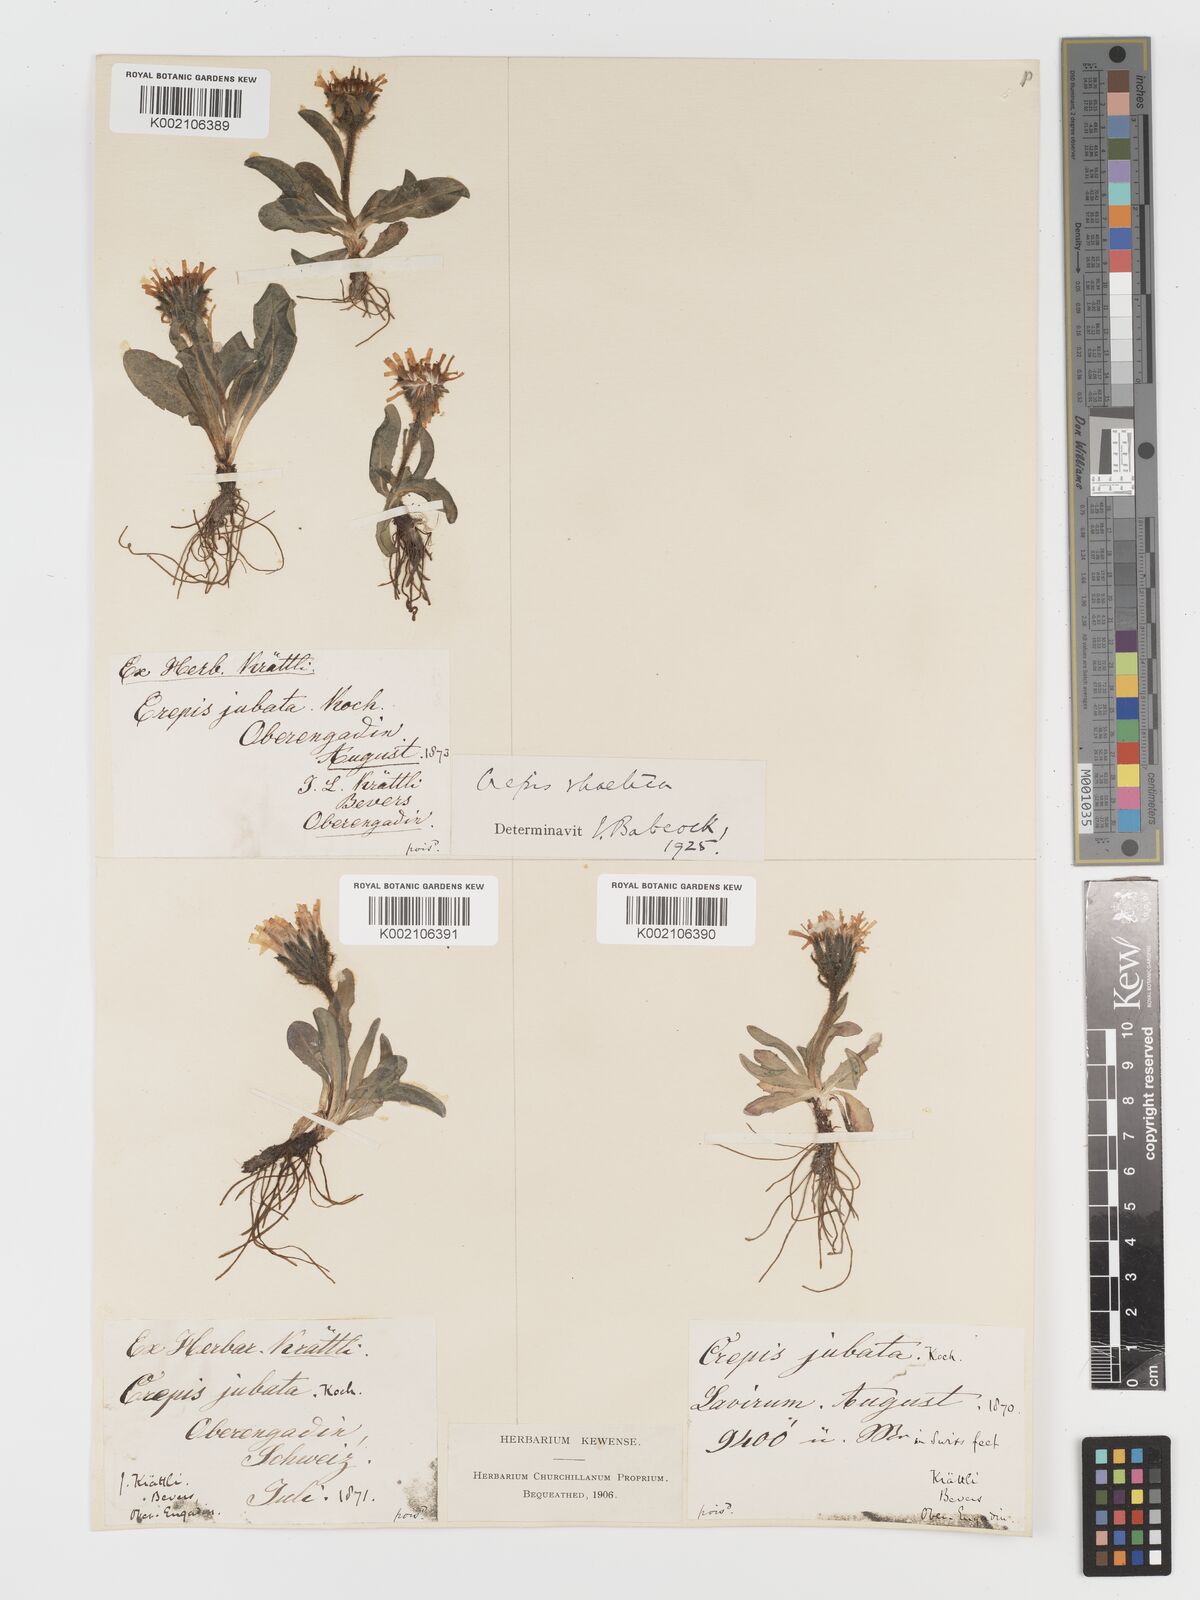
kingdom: Plantae
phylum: Tracheophyta
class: Magnoliopsida
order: Asterales
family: Asteraceae
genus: Crepis
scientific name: Crepis rhaetica
